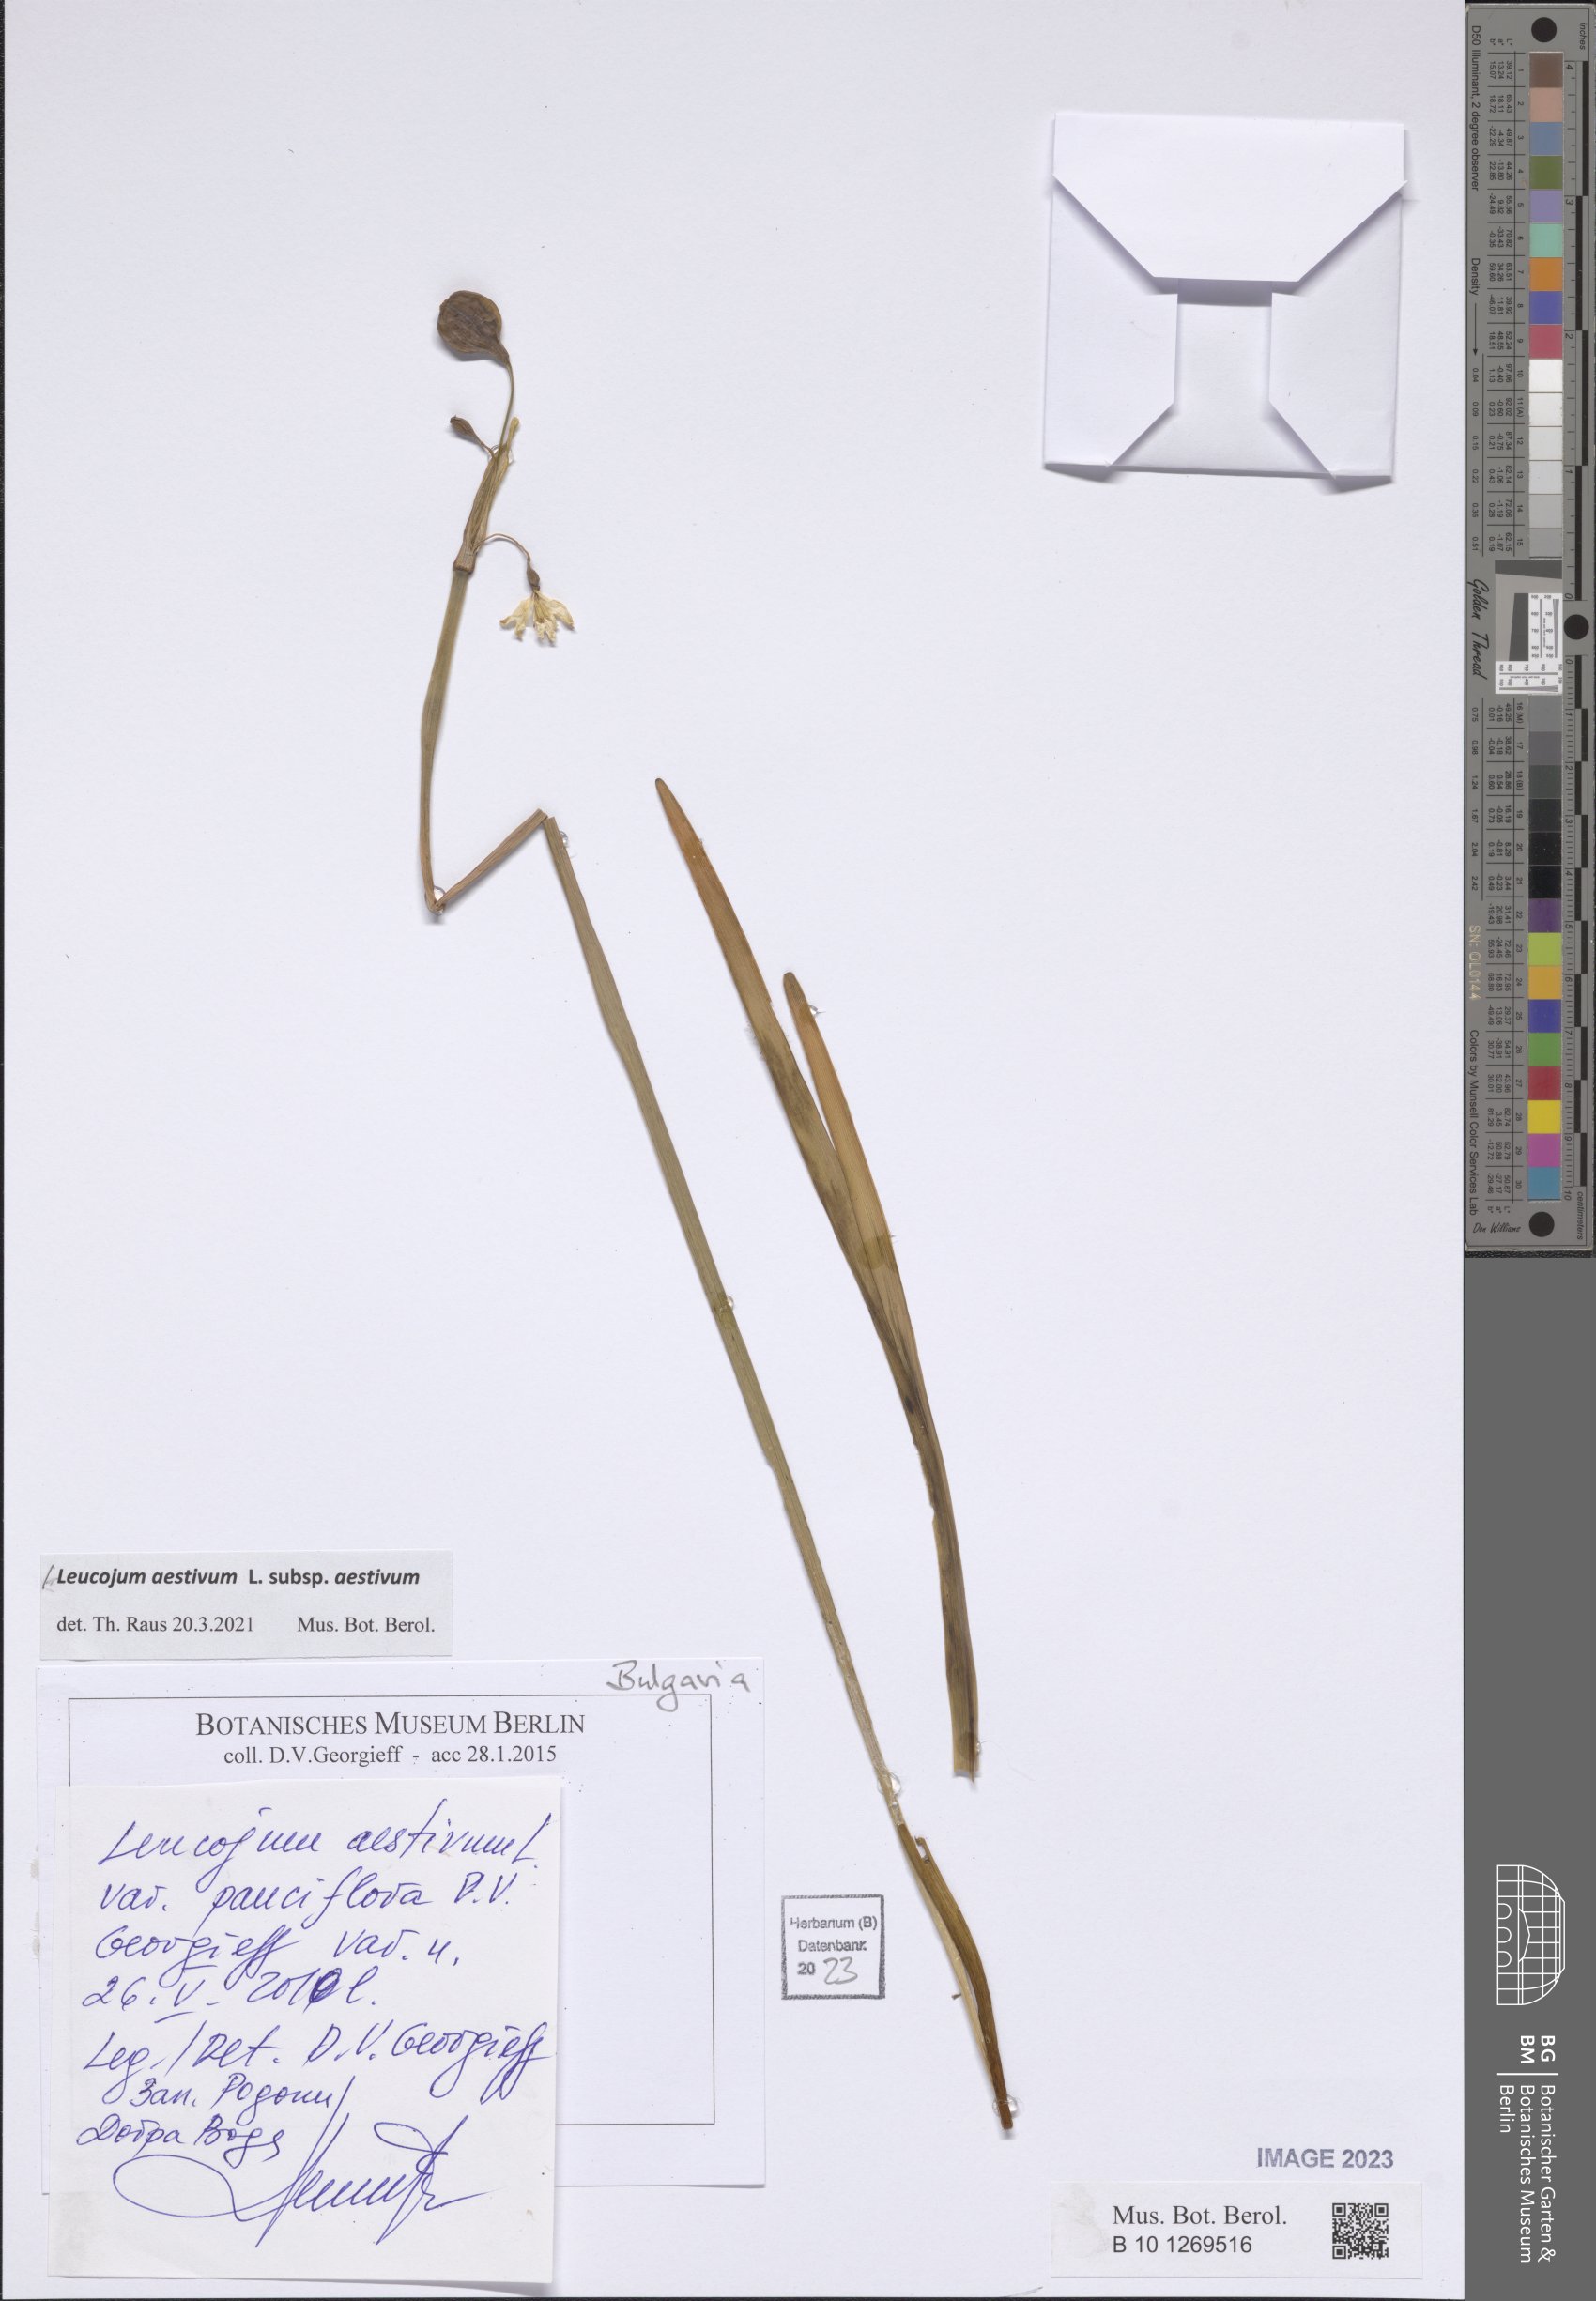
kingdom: Plantae
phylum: Tracheophyta
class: Liliopsida
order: Asparagales
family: Amaryllidaceae
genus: Leucojum
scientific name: Leucojum aestivum
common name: Summer snowflake
